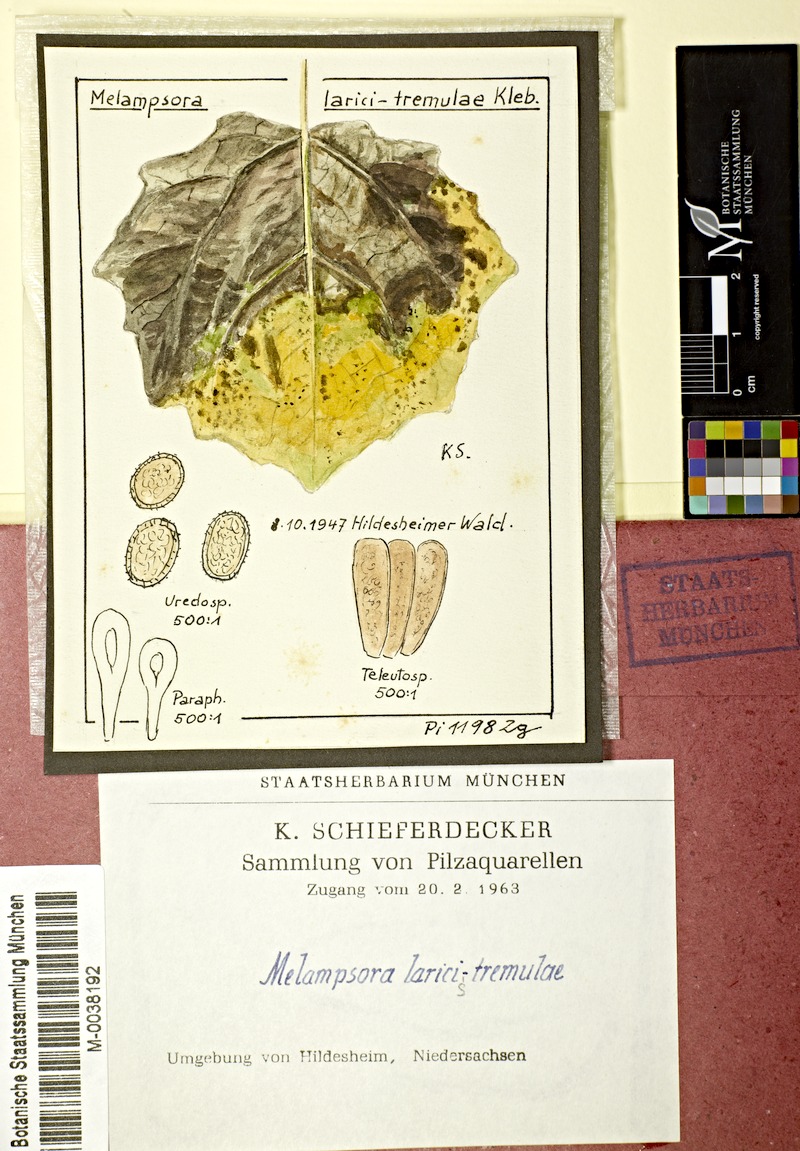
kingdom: Fungi
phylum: Basidiomycota
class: Pucciniomycetes
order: Pucciniales
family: Melampsoraceae
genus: Melampsora
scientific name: Melampsora populnea
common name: Dog's mercury rust
